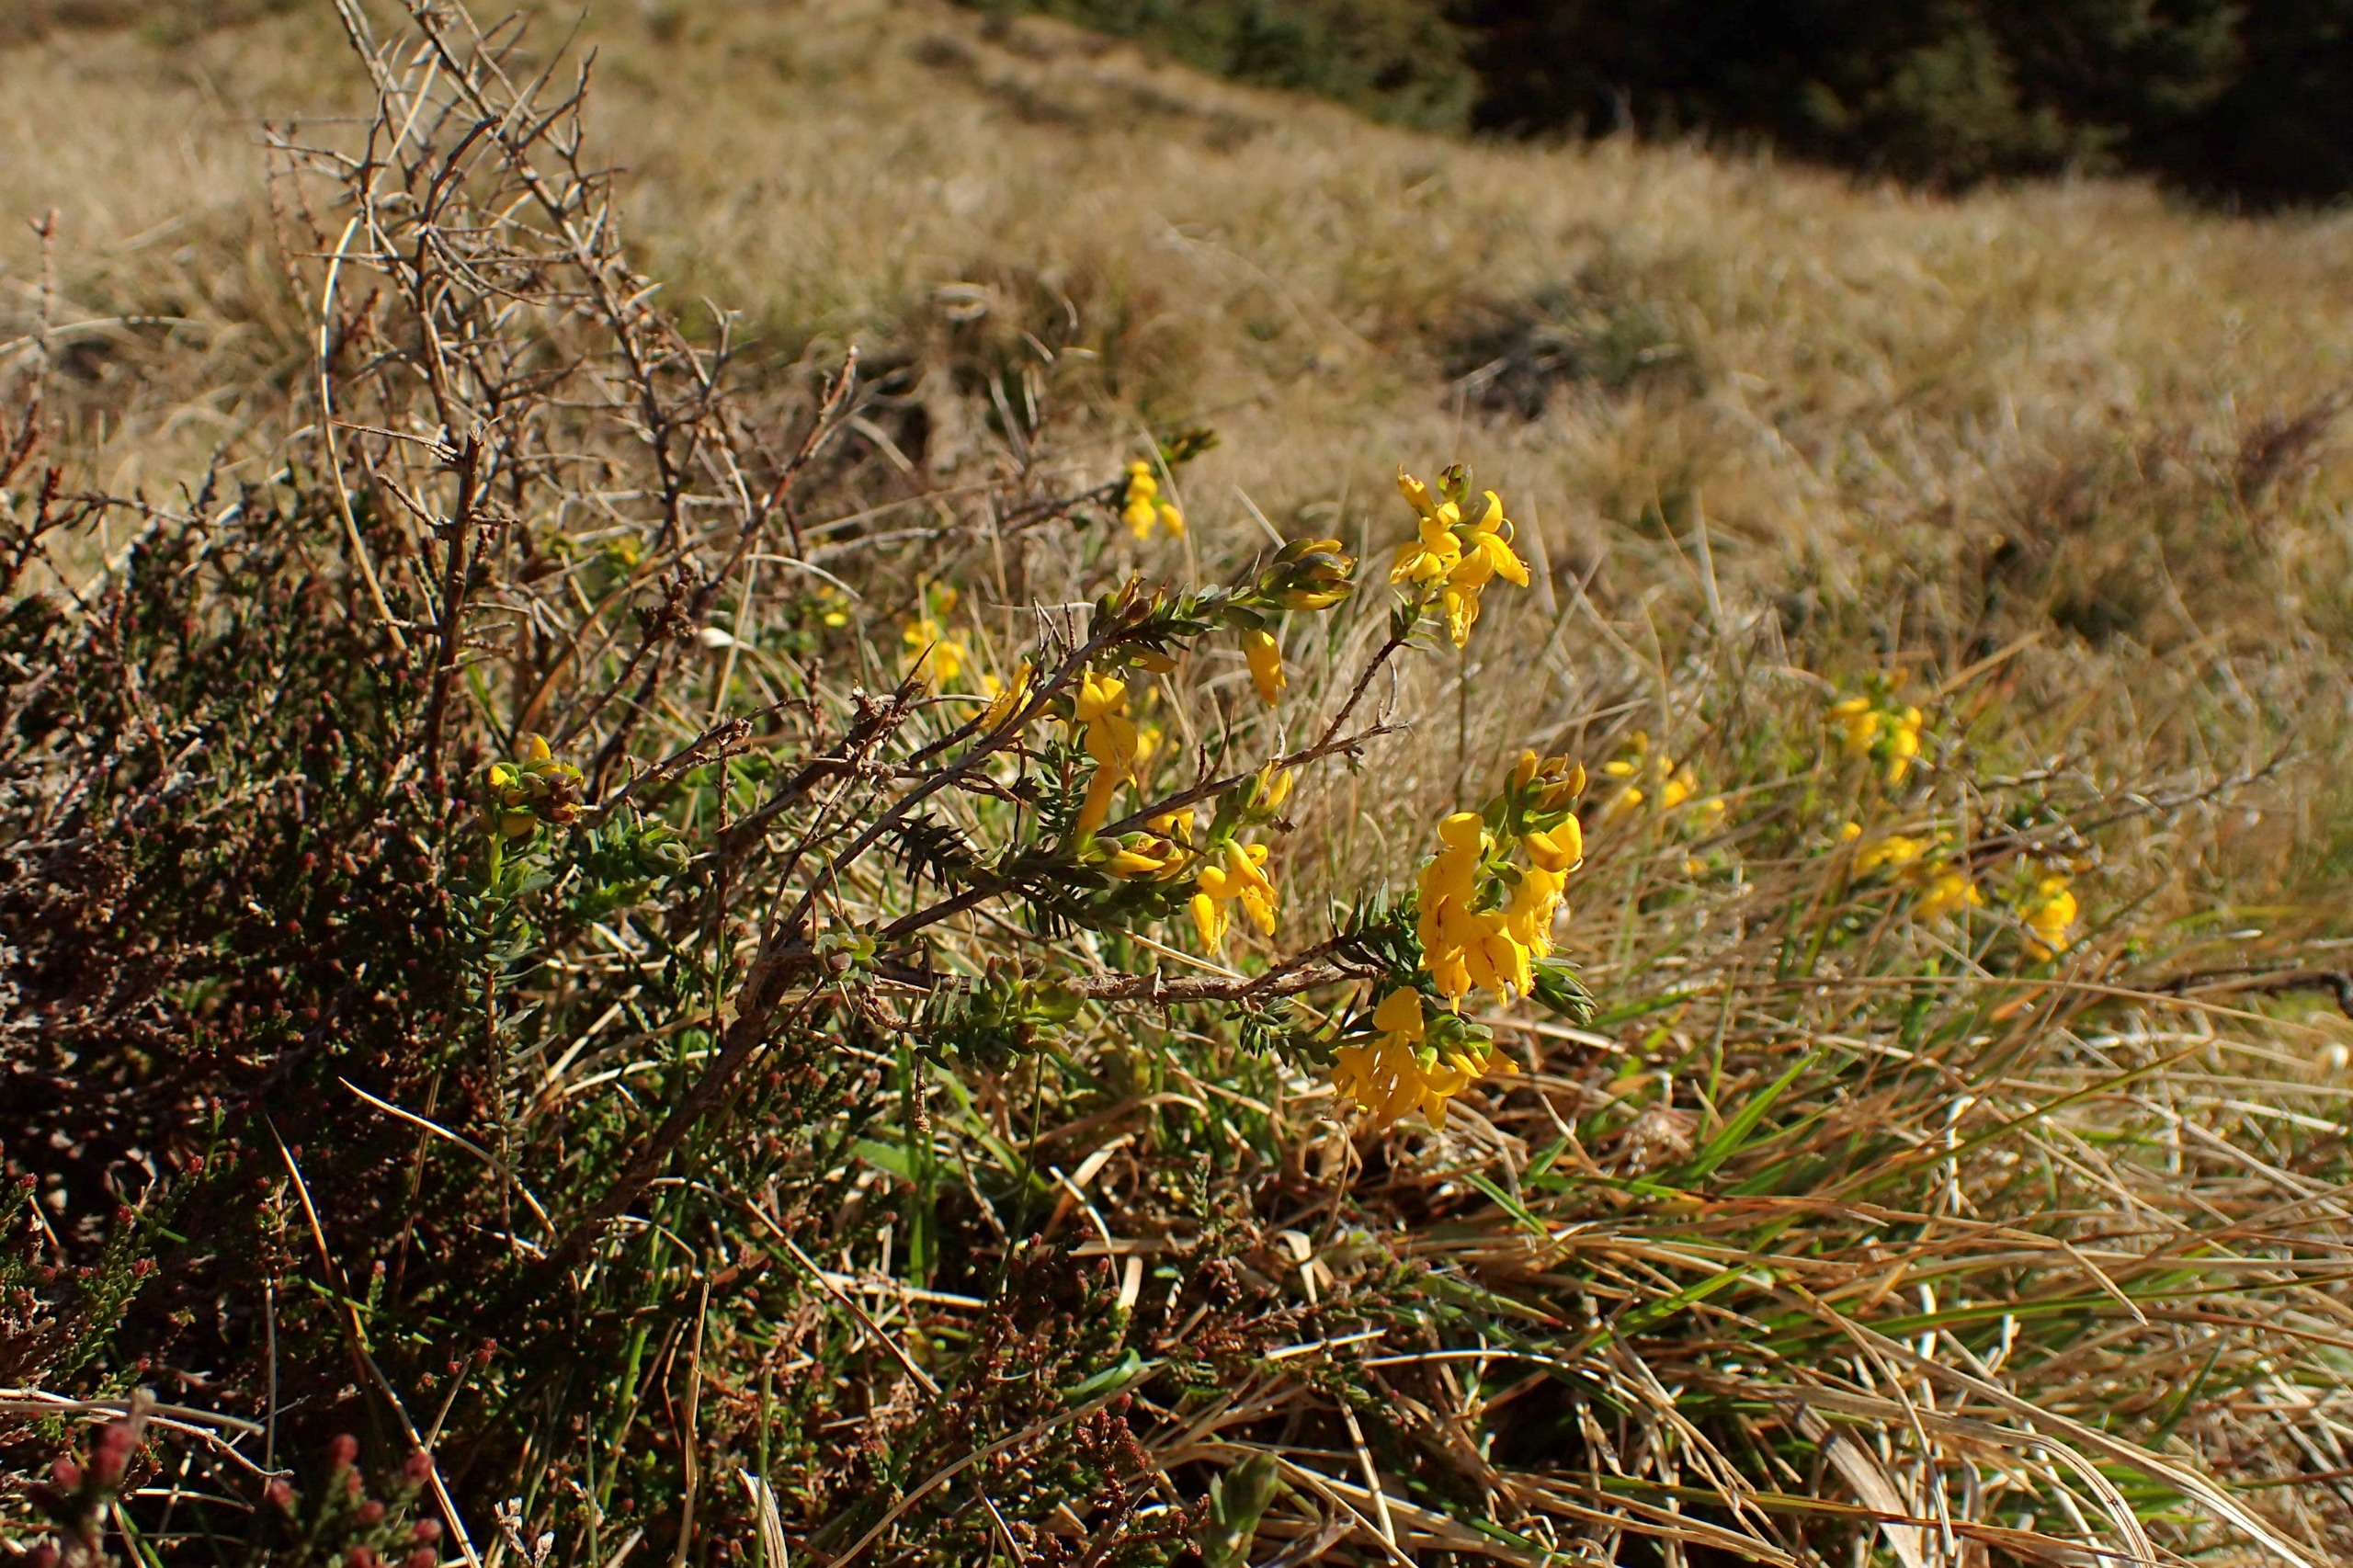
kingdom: Plantae
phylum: Tracheophyta
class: Magnoliopsida
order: Fabales
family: Fabaceae
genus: Genista
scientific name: Genista anglica
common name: Engelsk visse
